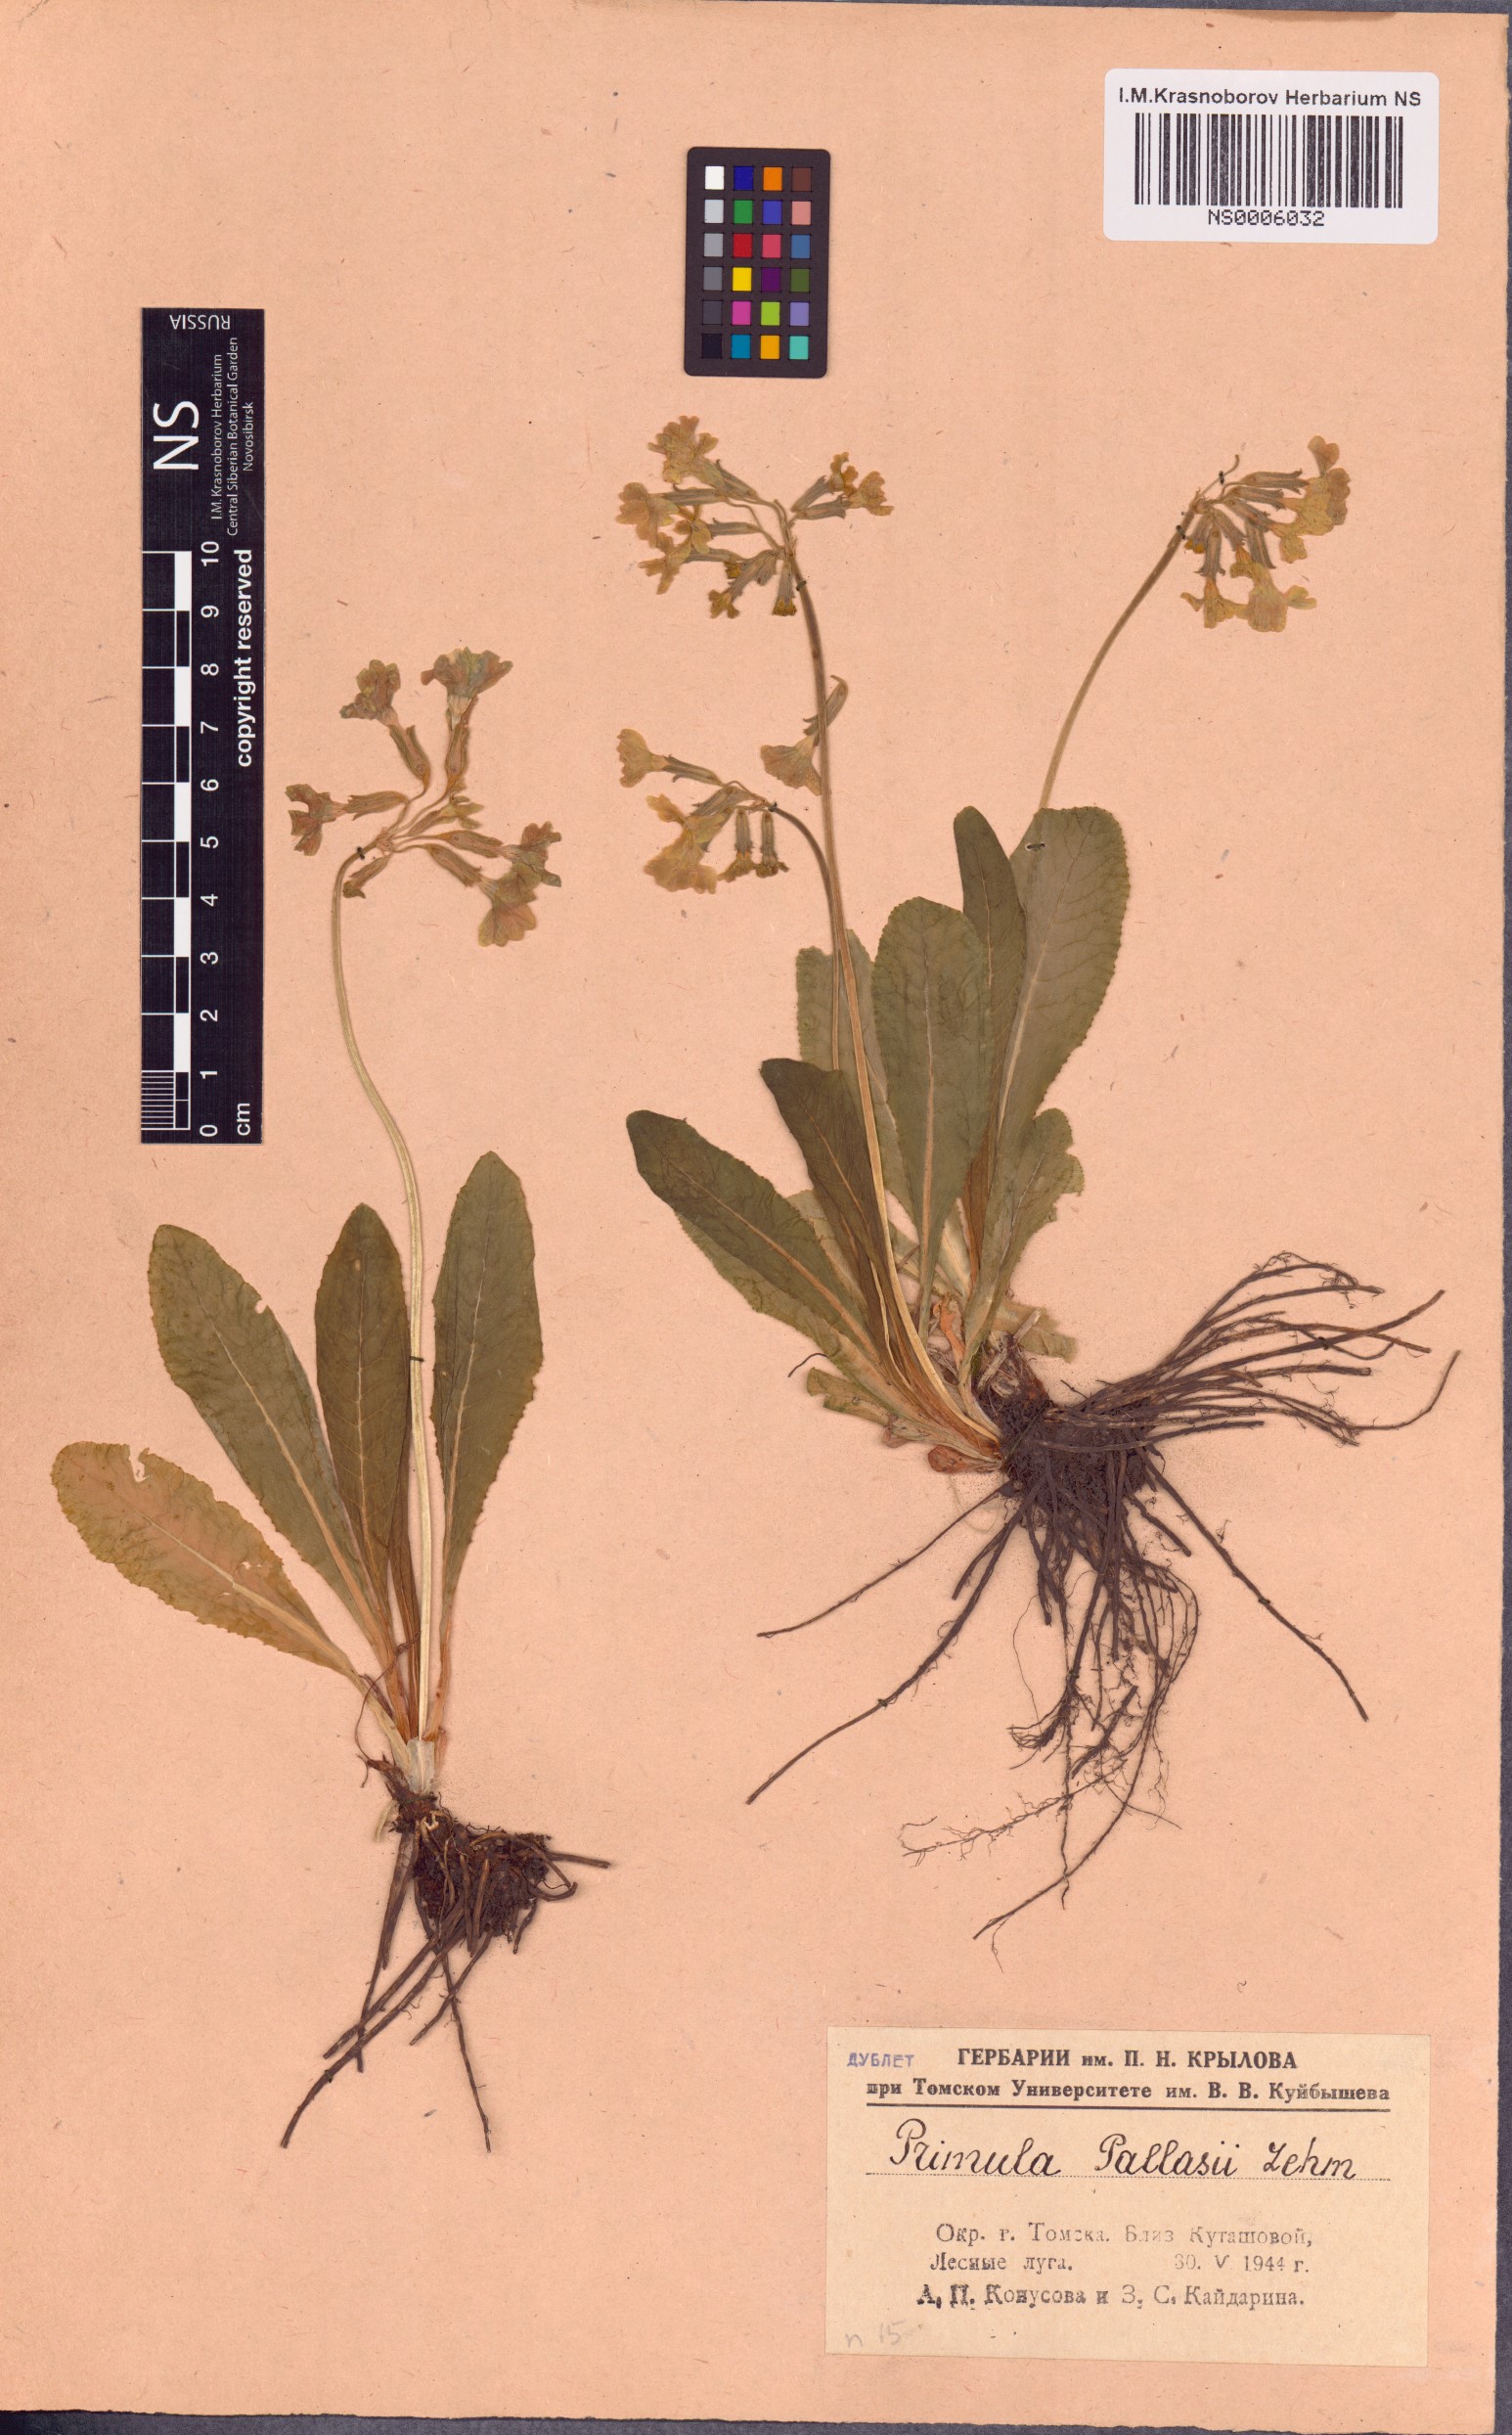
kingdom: Plantae
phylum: Tracheophyta
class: Magnoliopsida
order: Ericales
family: Primulaceae
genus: Primula
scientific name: Primula elatior
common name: Oxlip
